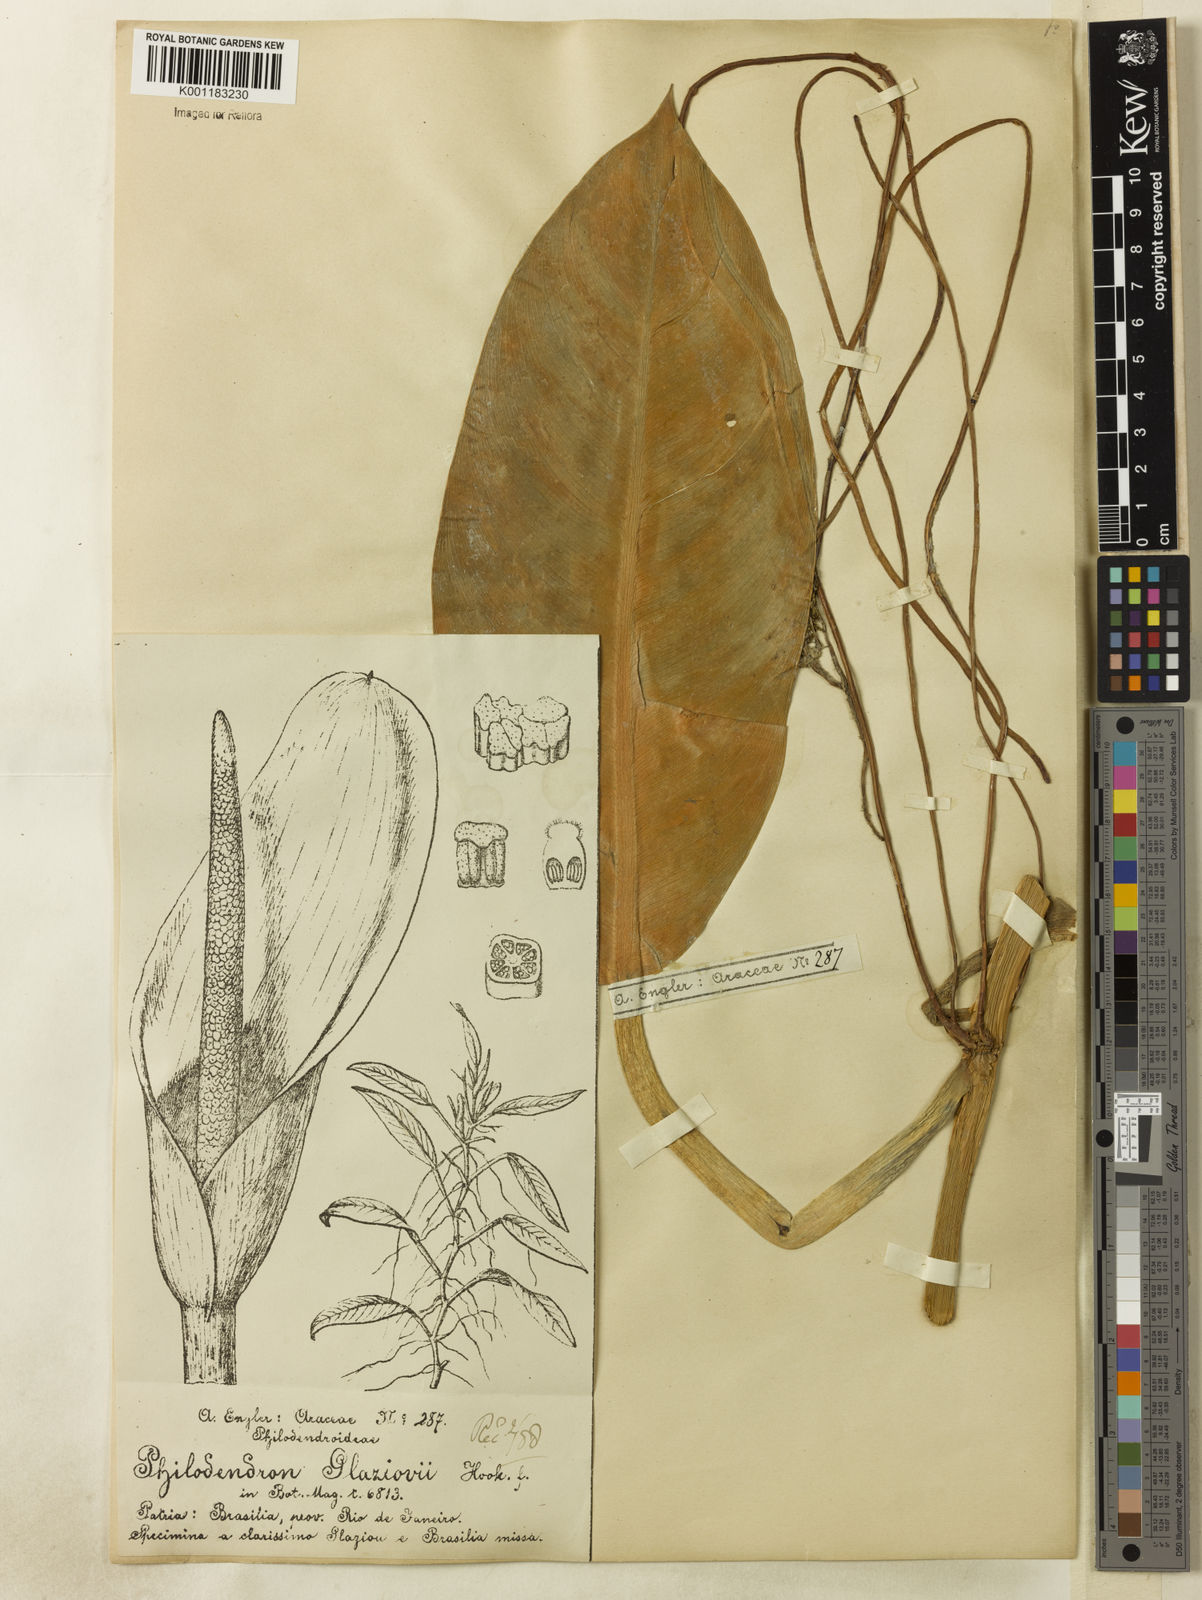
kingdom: Plantae
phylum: Tracheophyta
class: Liliopsida
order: Alismatales
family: Araceae
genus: Philodendron
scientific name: Philodendron glaziovii
